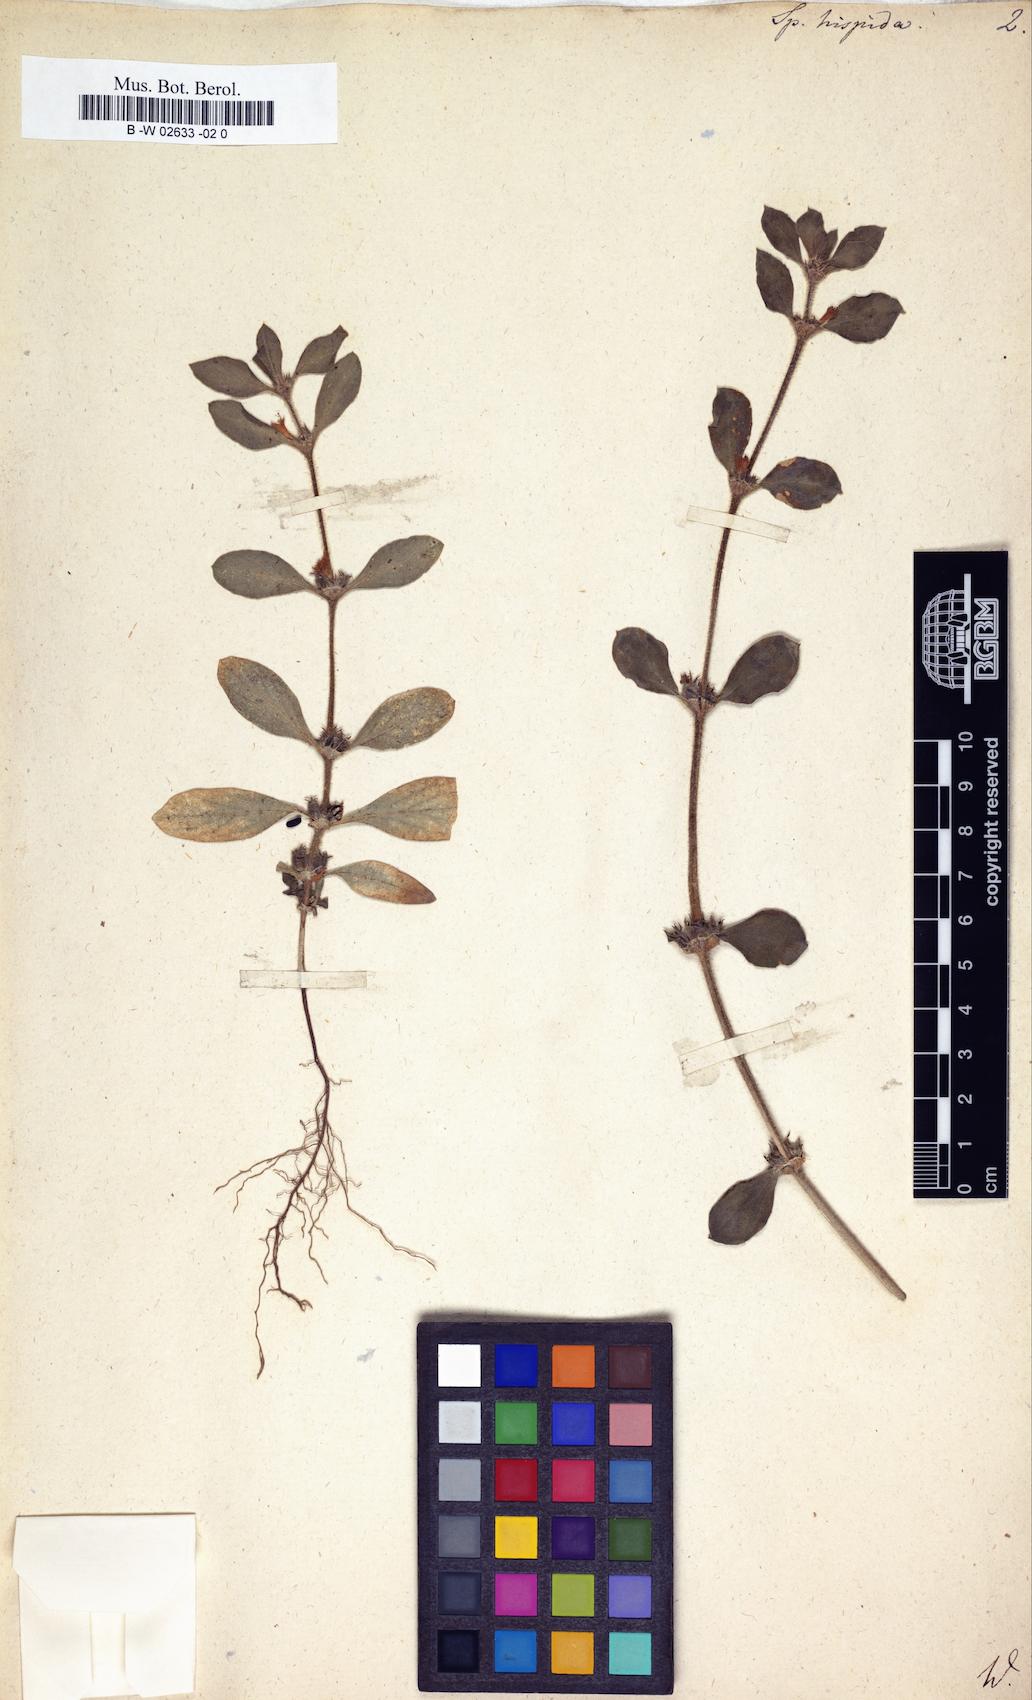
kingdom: Plantae
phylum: Tracheophyta
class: Magnoliopsida
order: Gentianales
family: Rubiaceae
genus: Spermacoce
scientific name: Spermacoce hispida
